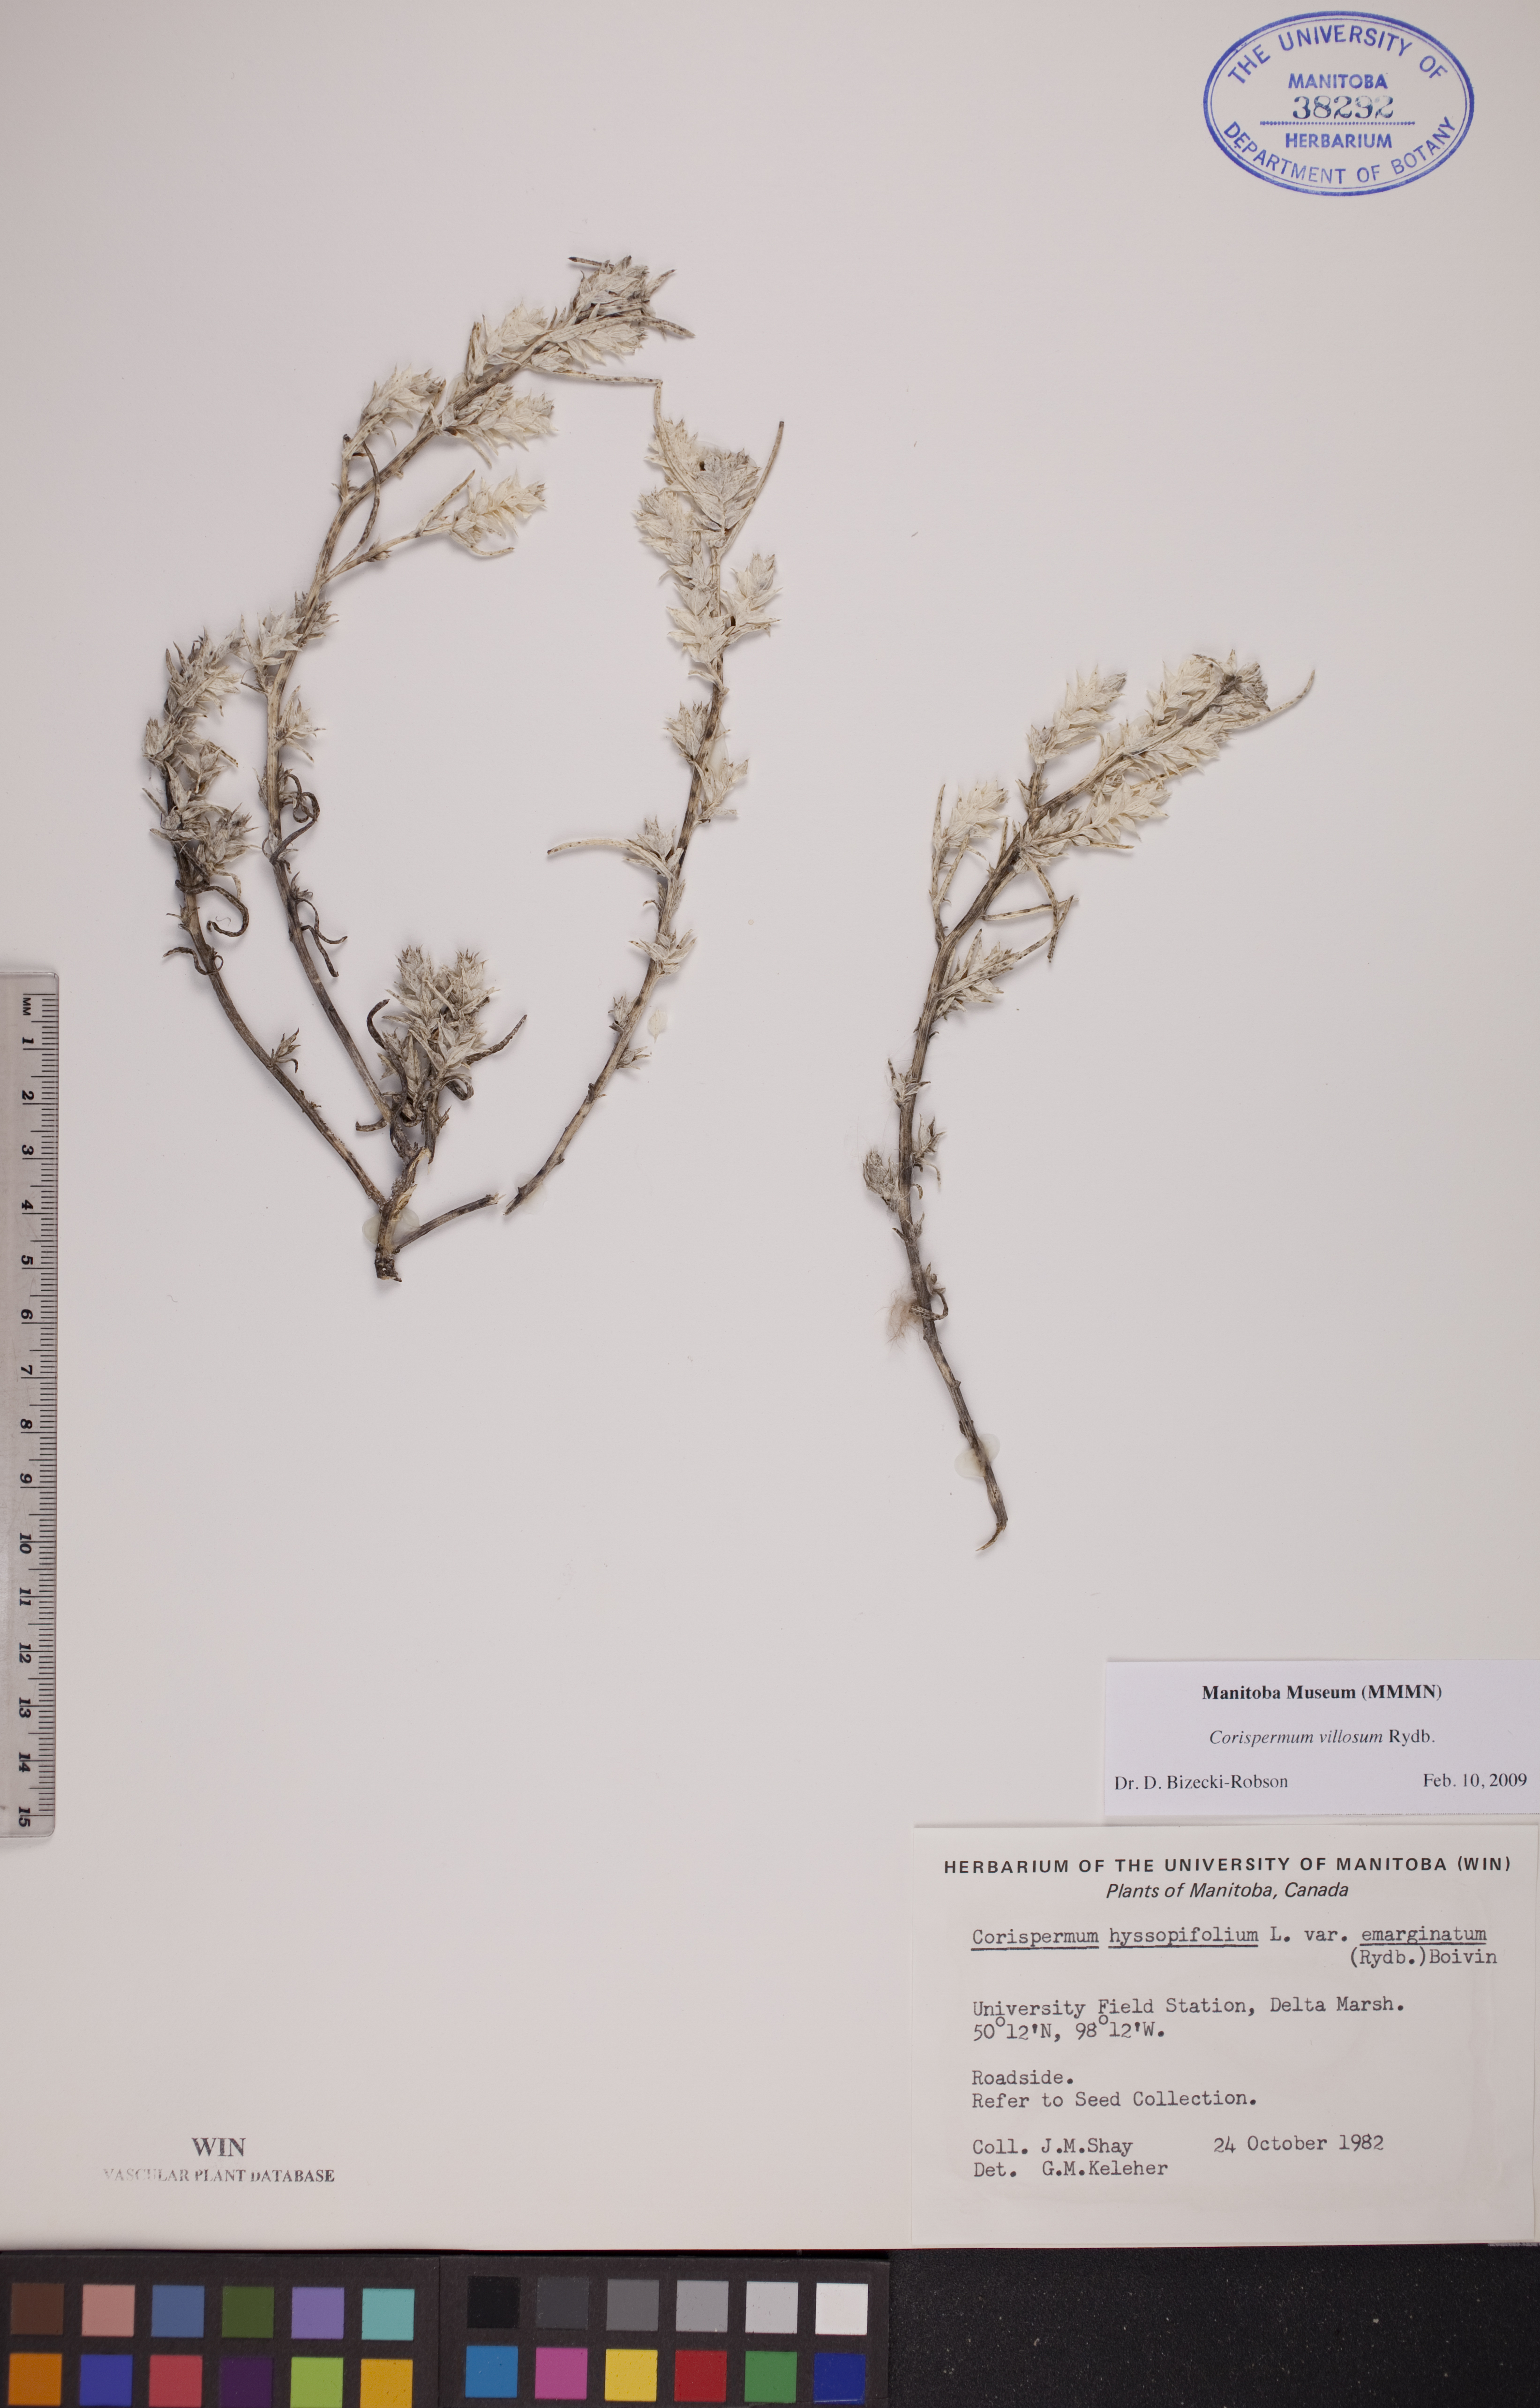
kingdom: Plantae
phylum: Tracheophyta
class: Magnoliopsida
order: Caryophyllales
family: Amaranthaceae
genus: Corispermum
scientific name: Corispermum villosum
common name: Hairy bugseed
